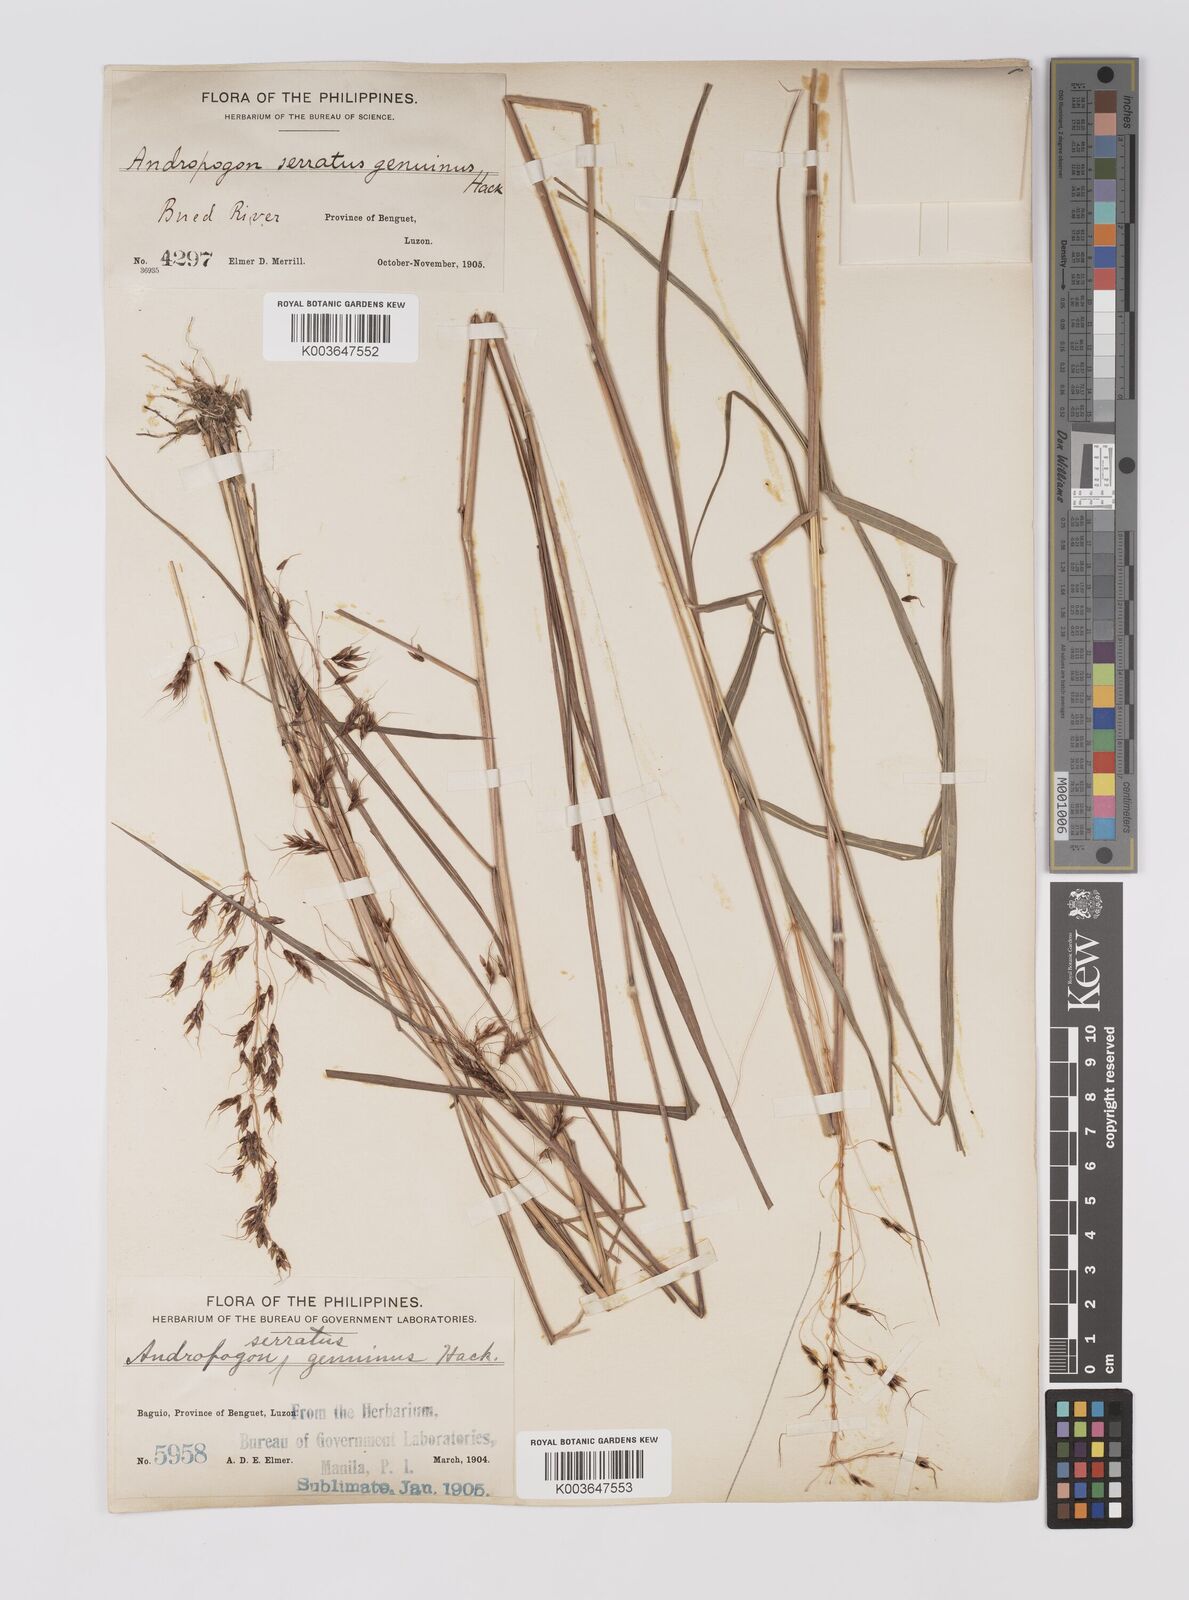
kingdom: Plantae
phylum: Tracheophyta
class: Liliopsida
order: Poales
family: Poaceae
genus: Sorghum
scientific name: Sorghum nitidum
